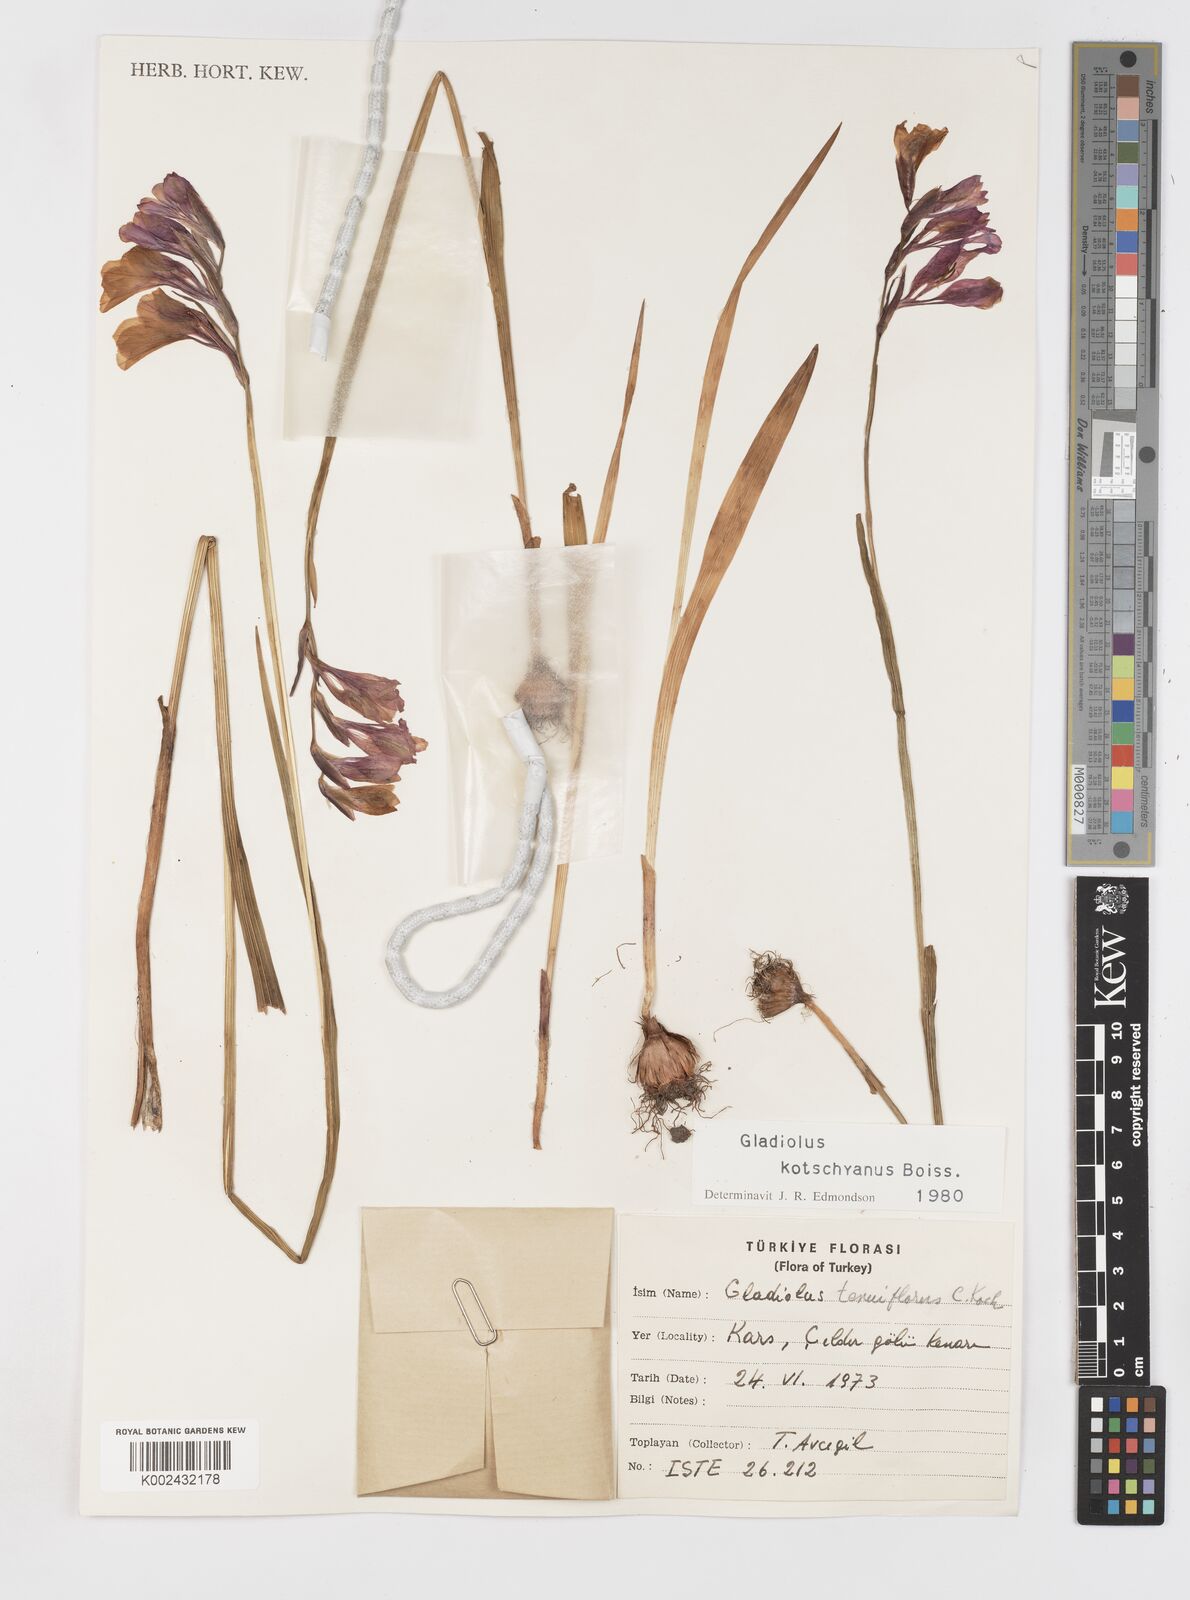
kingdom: Plantae
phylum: Tracheophyta
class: Liliopsida
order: Asparagales
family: Iridaceae
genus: Gladiolus
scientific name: Gladiolus imbricatus
